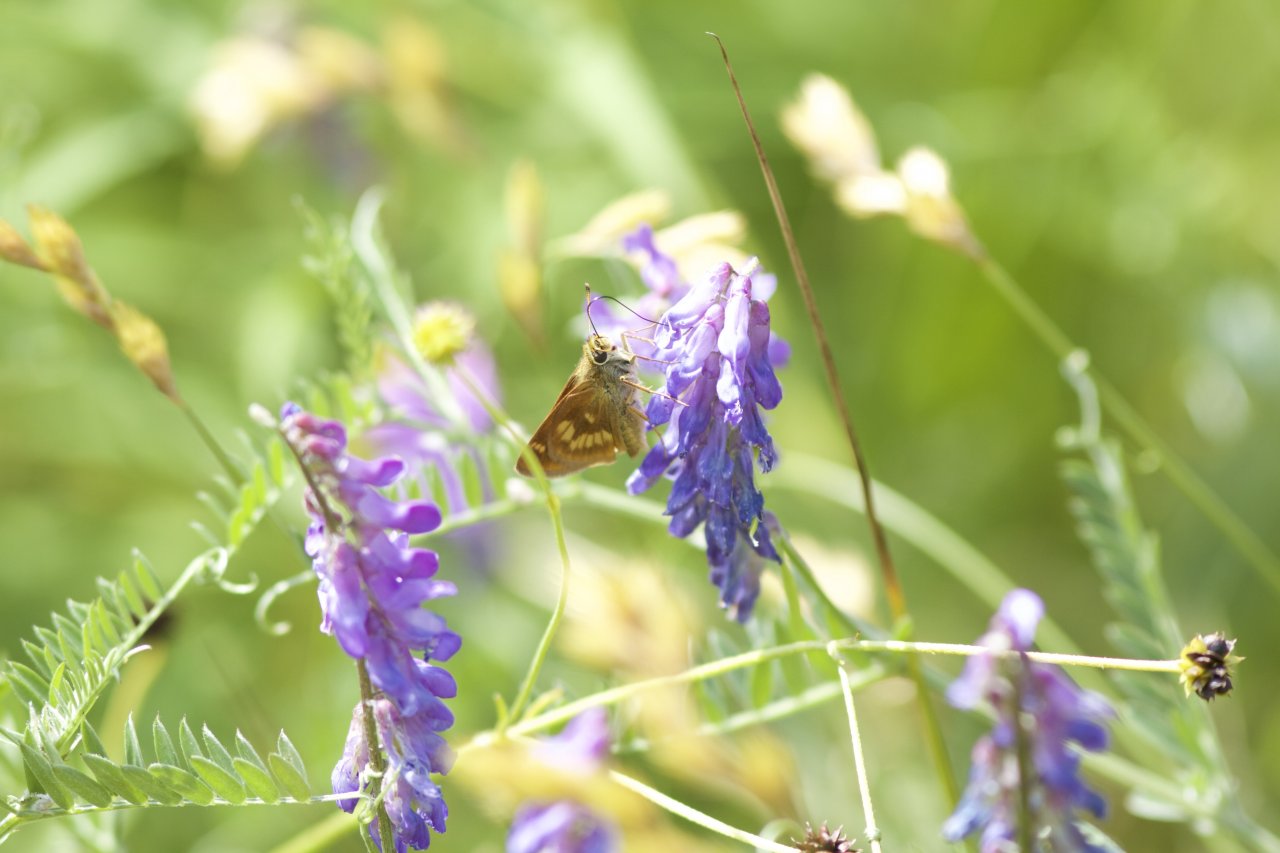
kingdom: Animalia
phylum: Arthropoda
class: Insecta
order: Lepidoptera
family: Hesperiidae
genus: Polites
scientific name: Polites
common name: Long Dash Skipper
